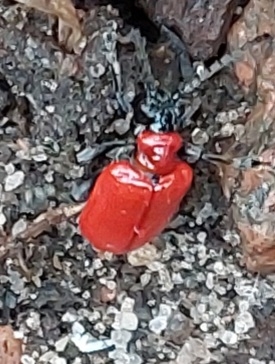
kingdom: Animalia
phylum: Arthropoda
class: Insecta
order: Coleoptera
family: Chrysomelidae
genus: Lilioceris
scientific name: Lilioceris lilii
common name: Liljebille
